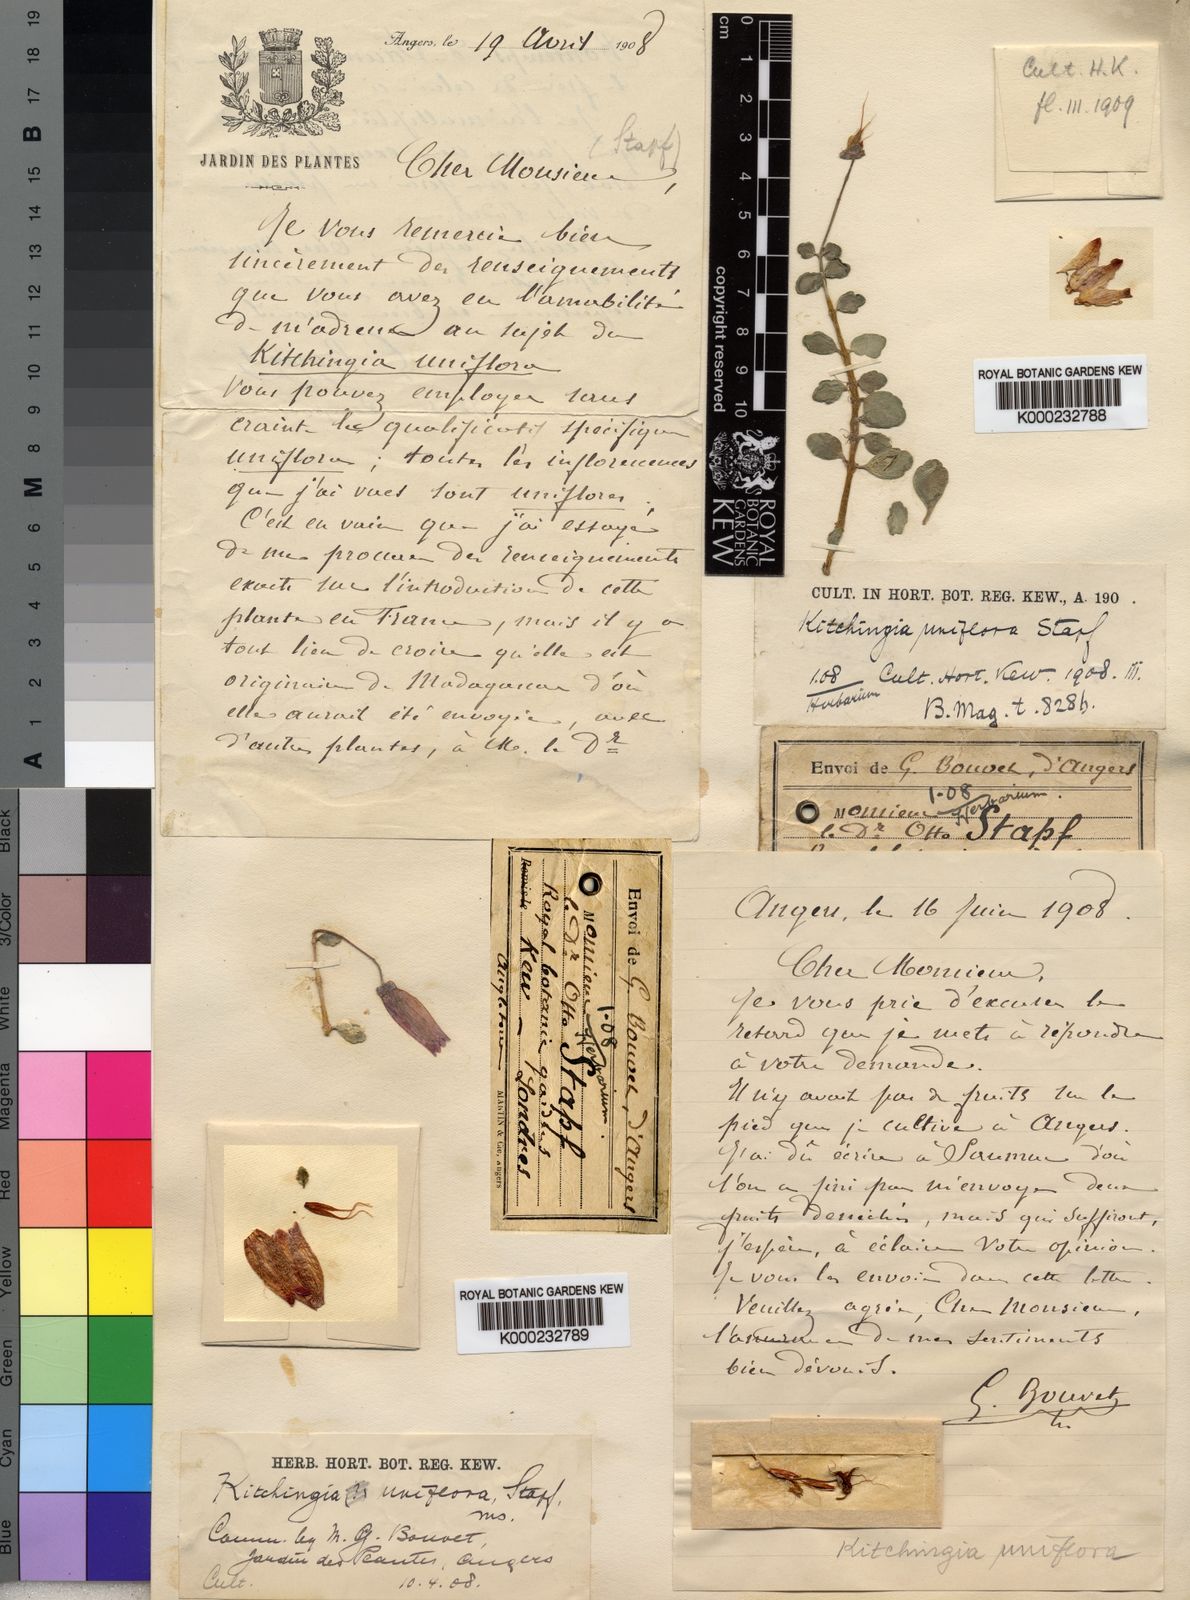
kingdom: Plantae
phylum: Tracheophyta
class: Magnoliopsida
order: Saxifragales
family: Crassulaceae
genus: Kalanchoe
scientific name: Kalanchoe uniflora
